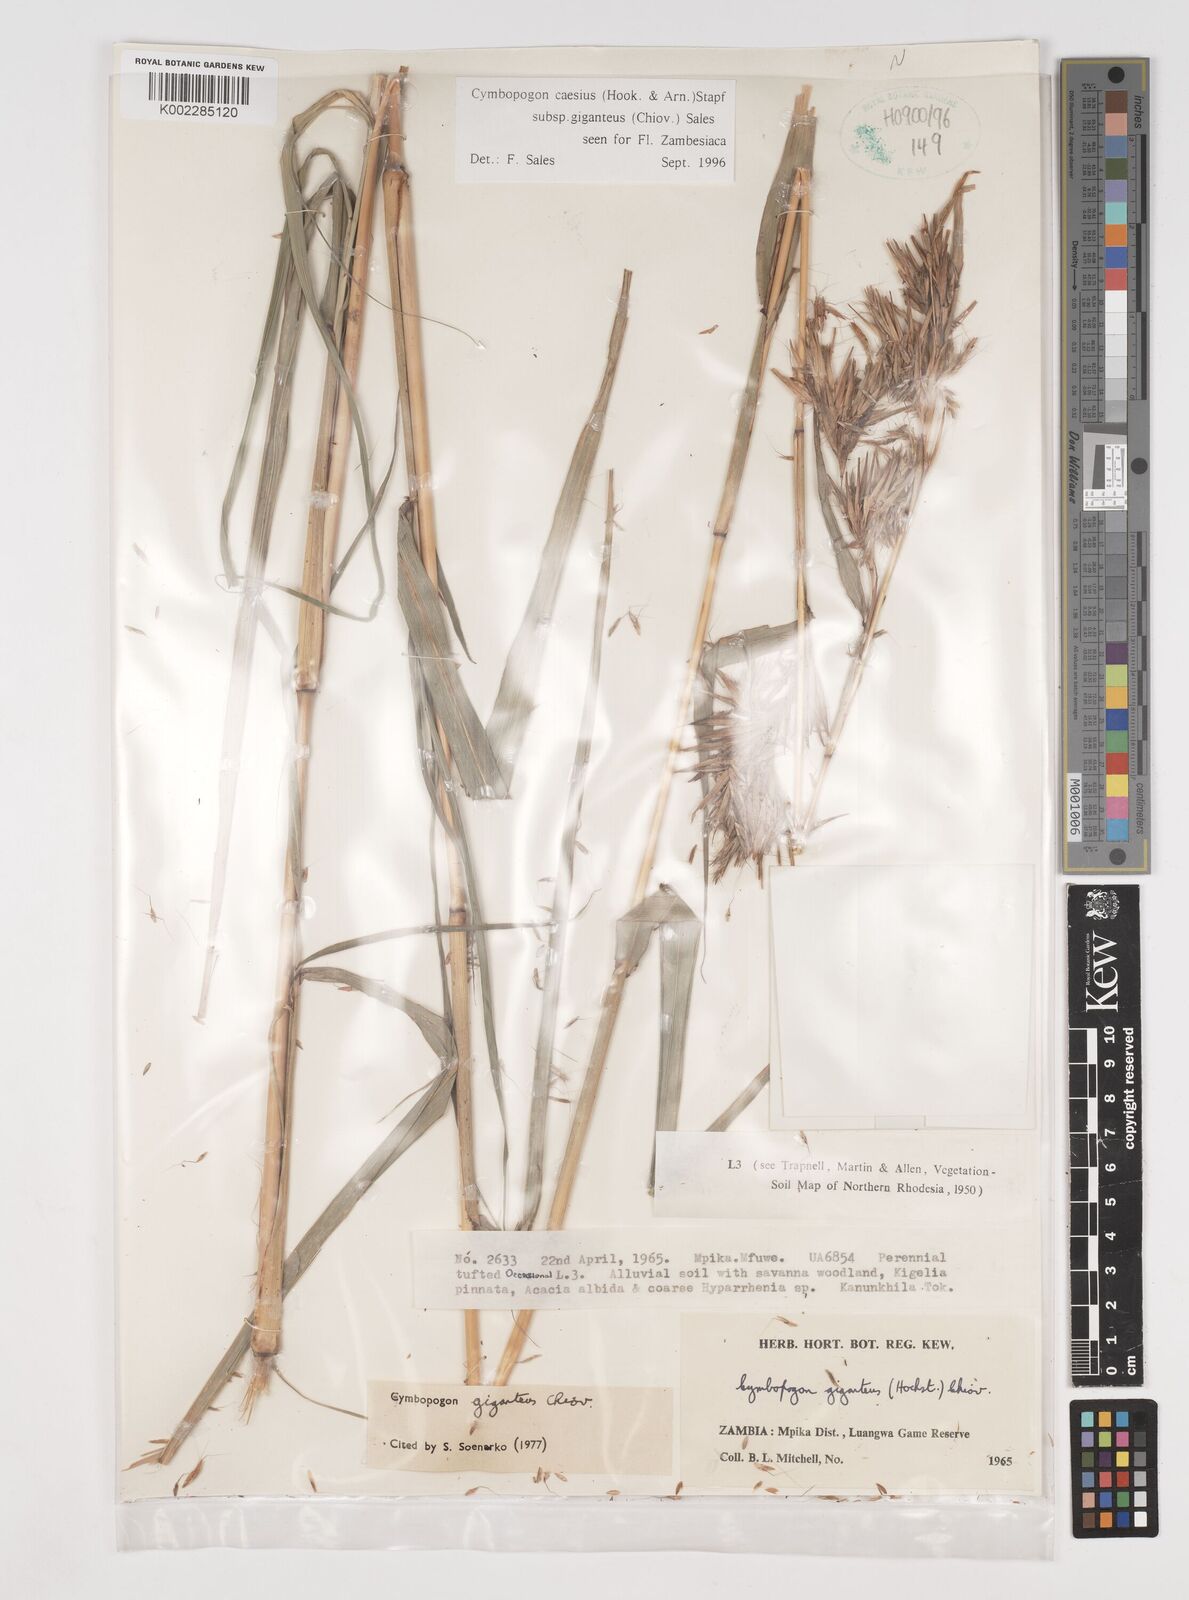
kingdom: Plantae
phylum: Tracheophyta
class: Liliopsida
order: Poales
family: Poaceae
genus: Cymbopogon
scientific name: Cymbopogon giganteus
